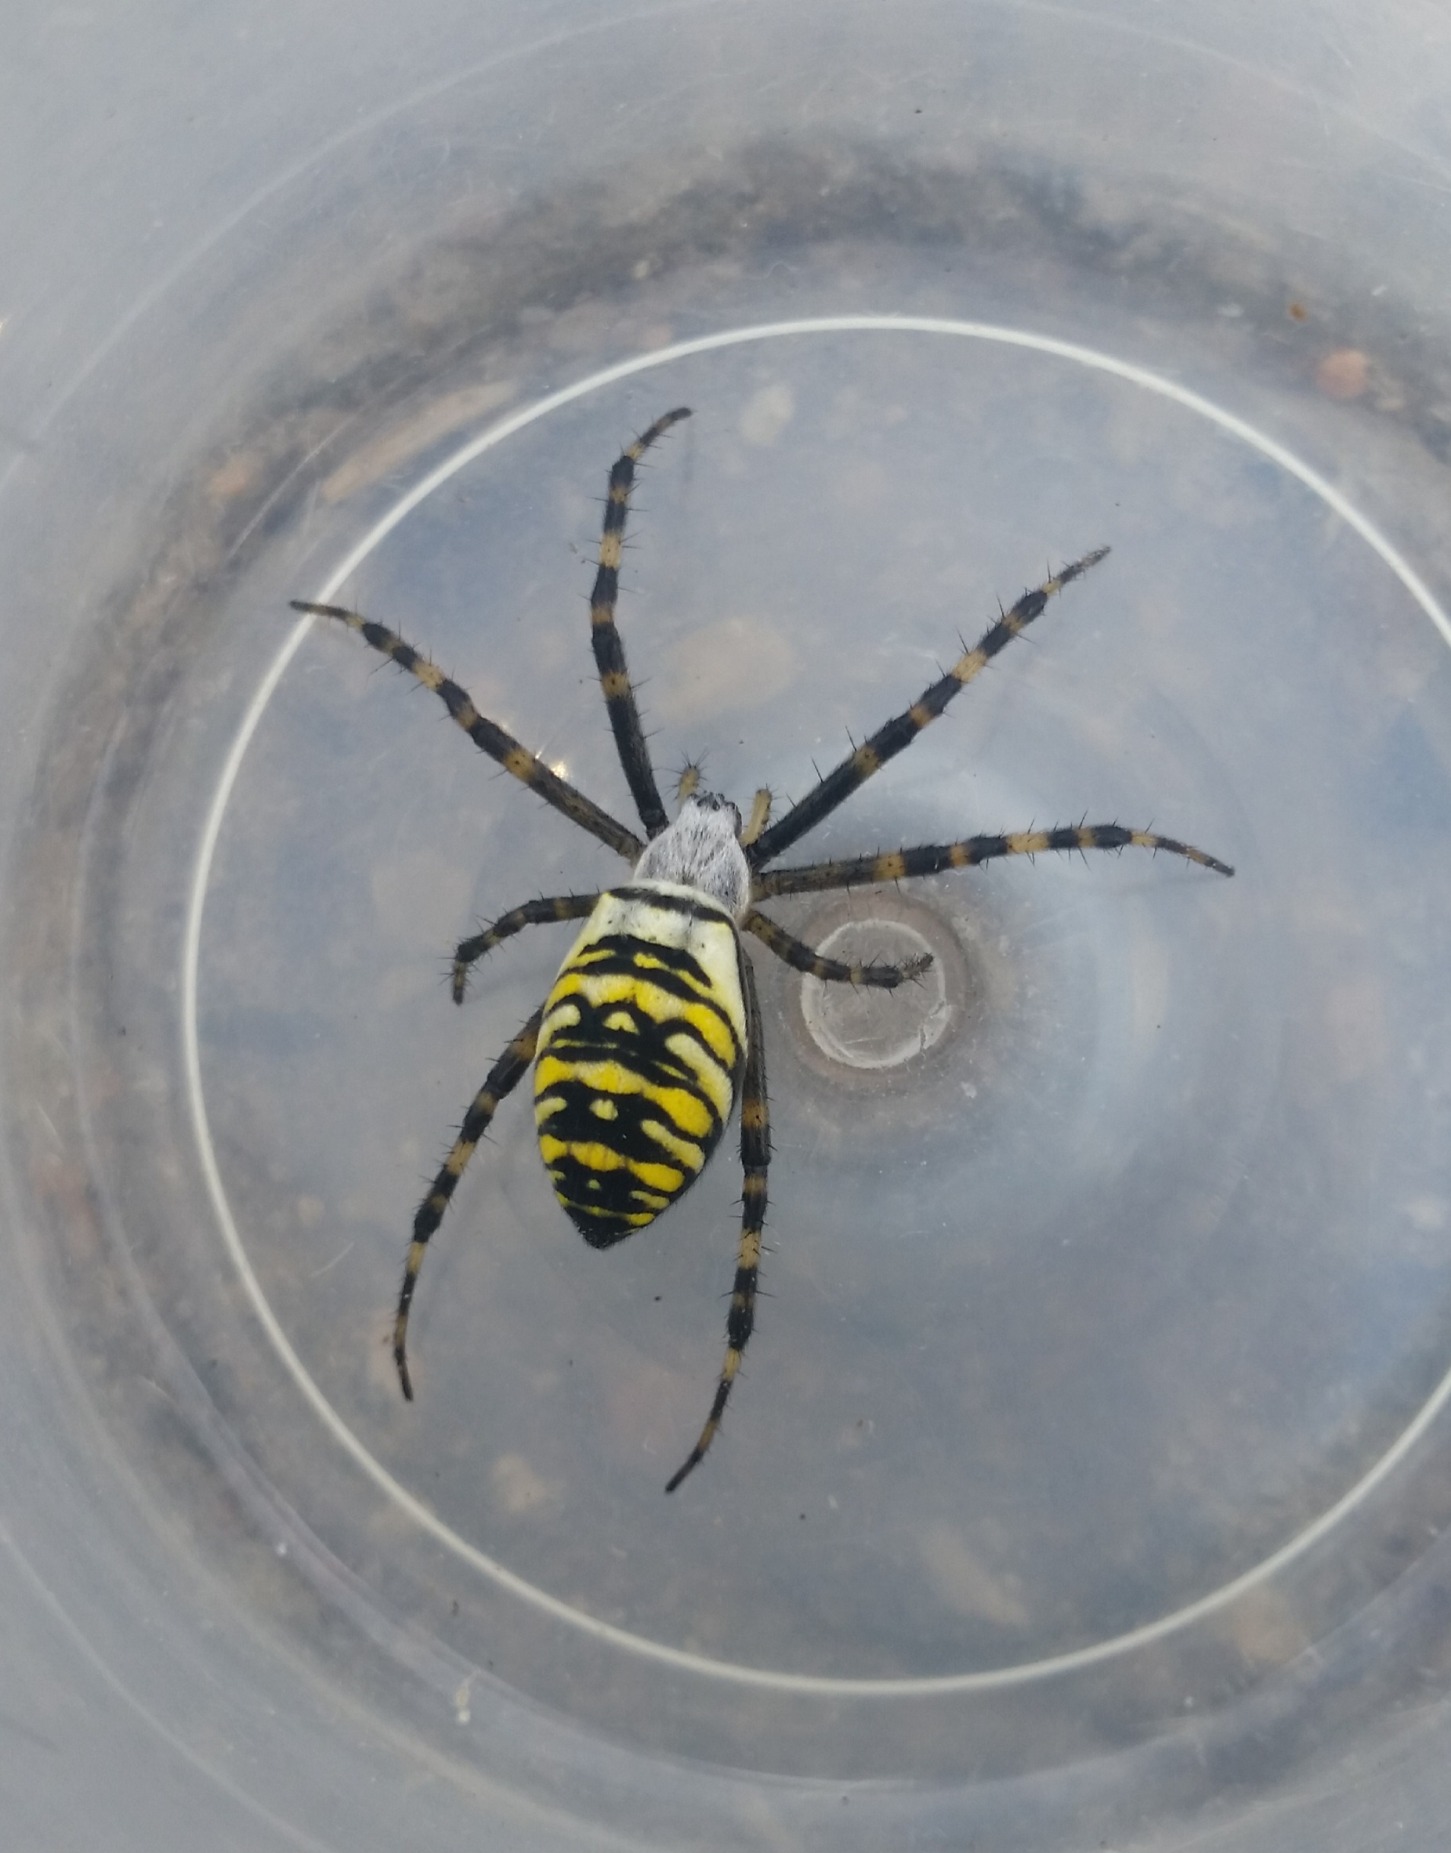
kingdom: Animalia
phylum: Arthropoda
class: Arachnida
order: Araneae
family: Araneidae
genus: Argiope
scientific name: Argiope bruennichi
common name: Hvepseedderkop
